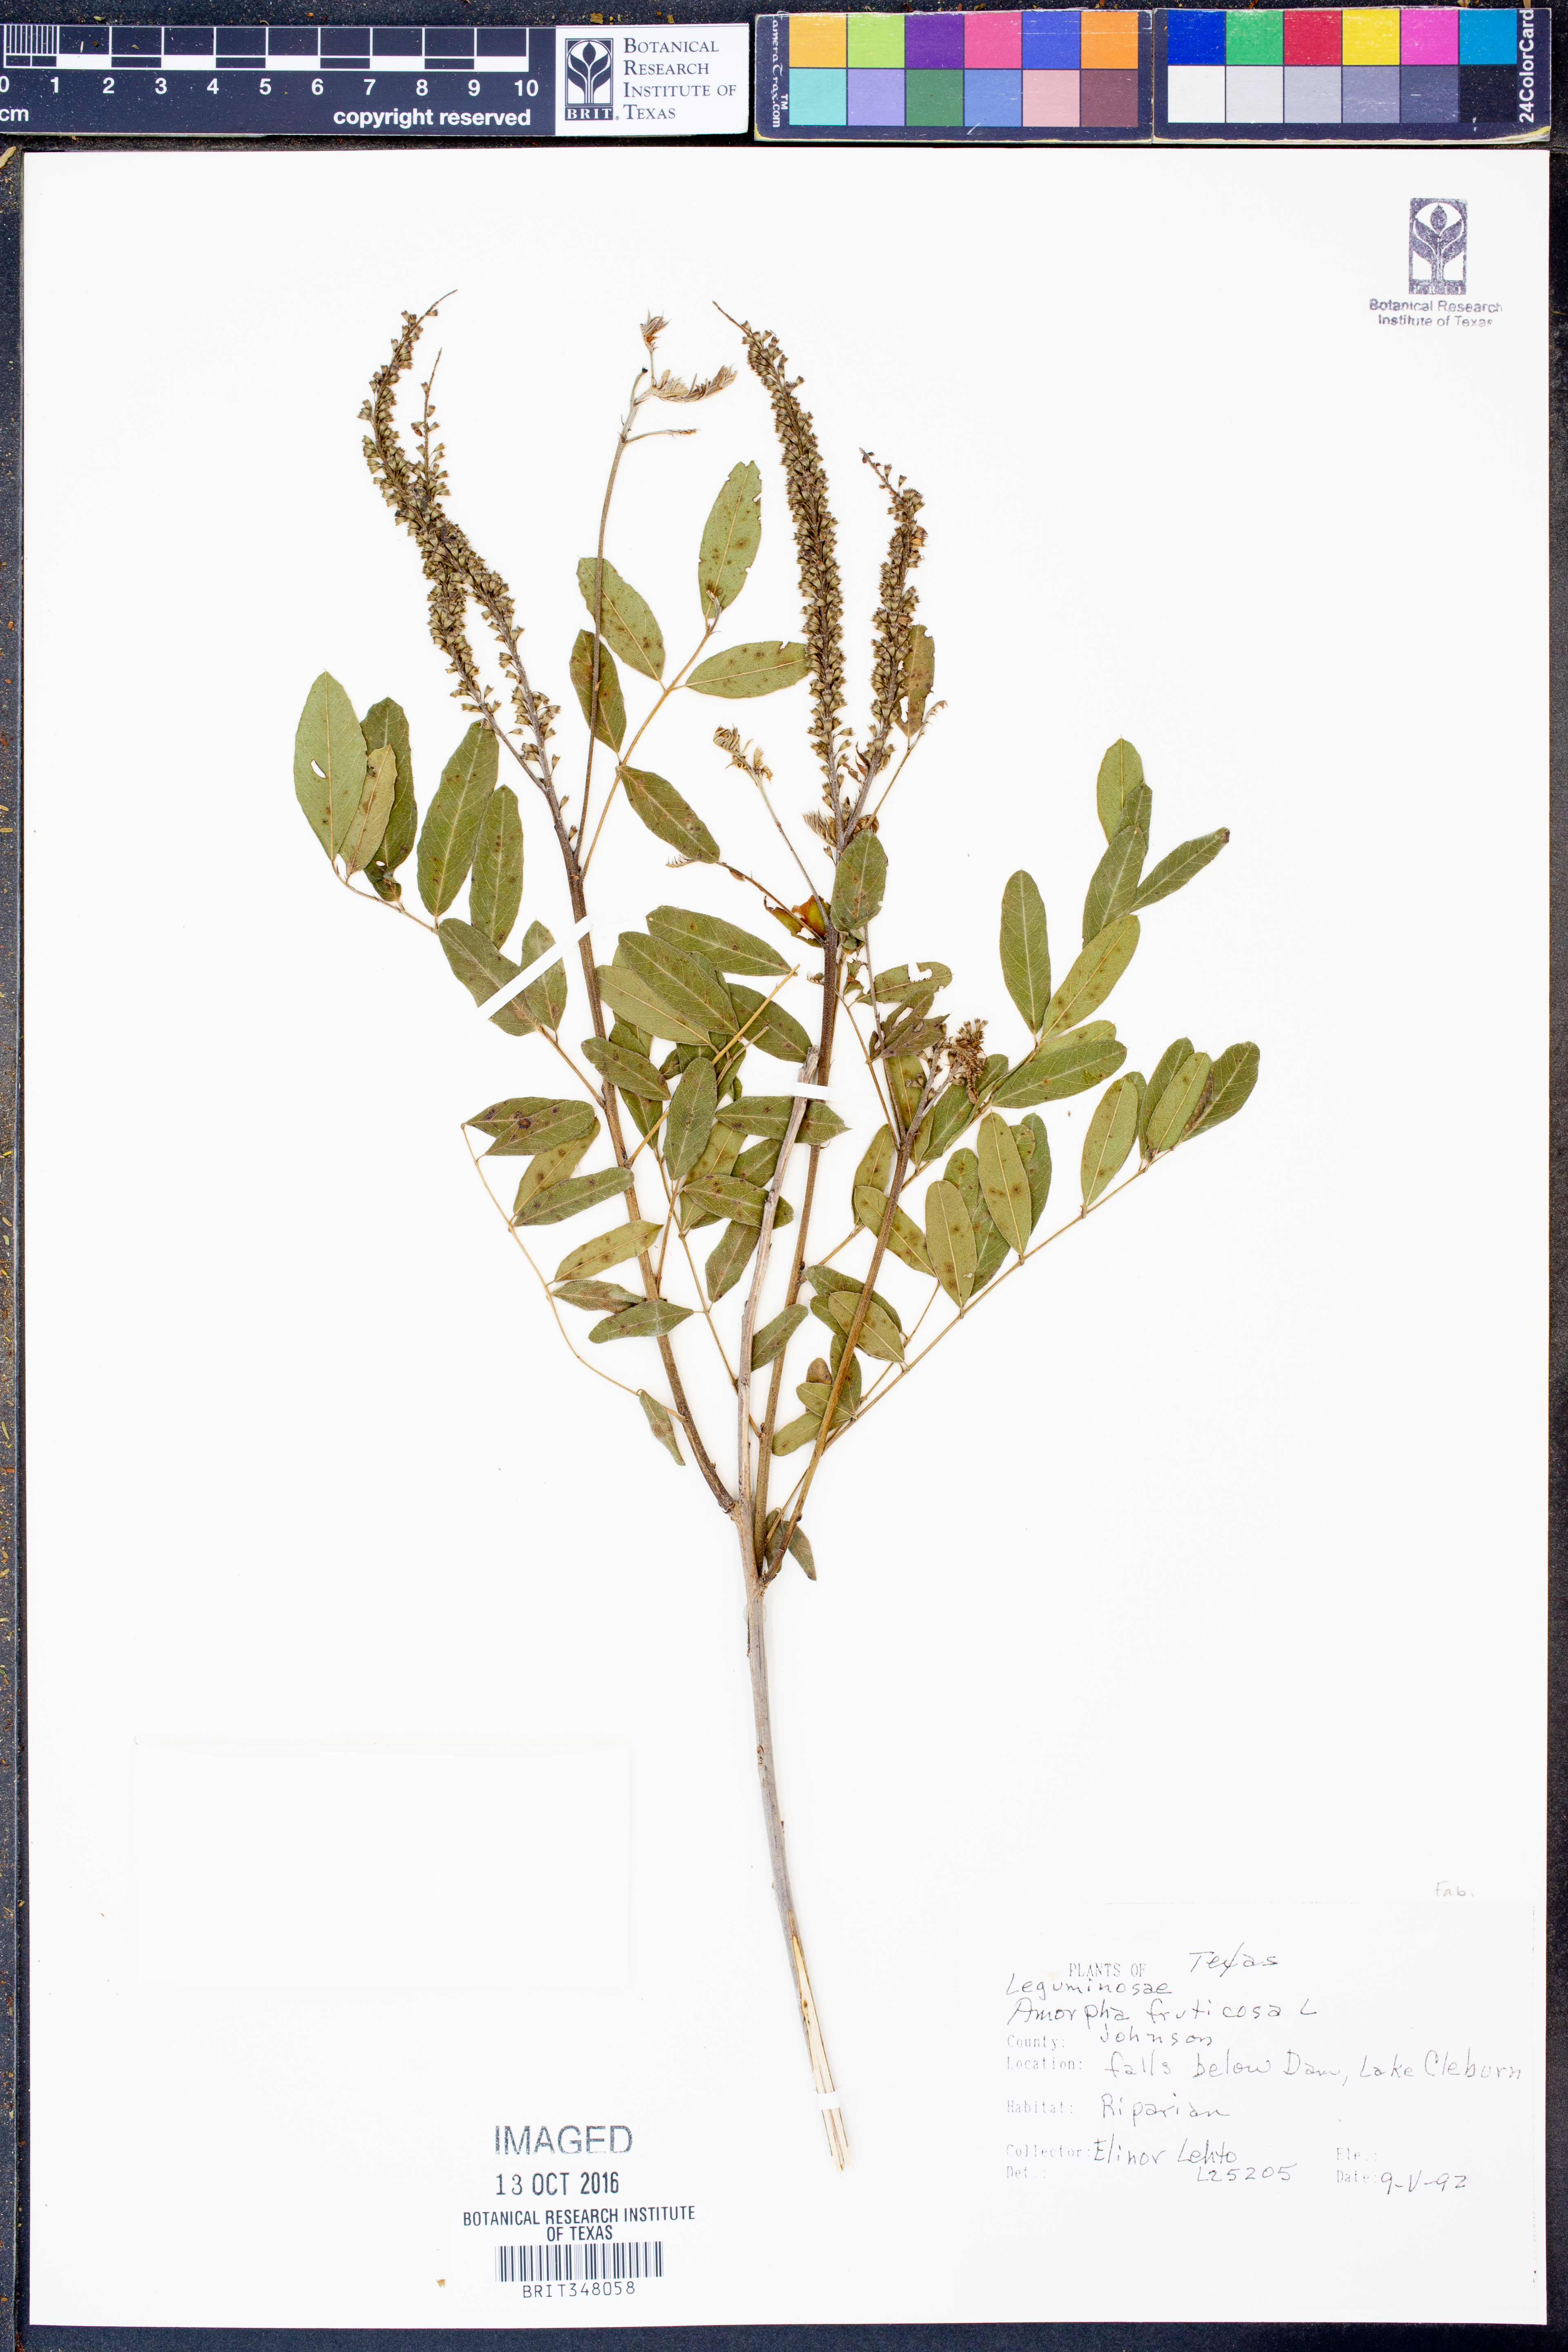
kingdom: Plantae
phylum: Tracheophyta
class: Magnoliopsida
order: Fabales
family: Fabaceae
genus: Amorpha
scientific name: Amorpha fruticosa
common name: False indigo
